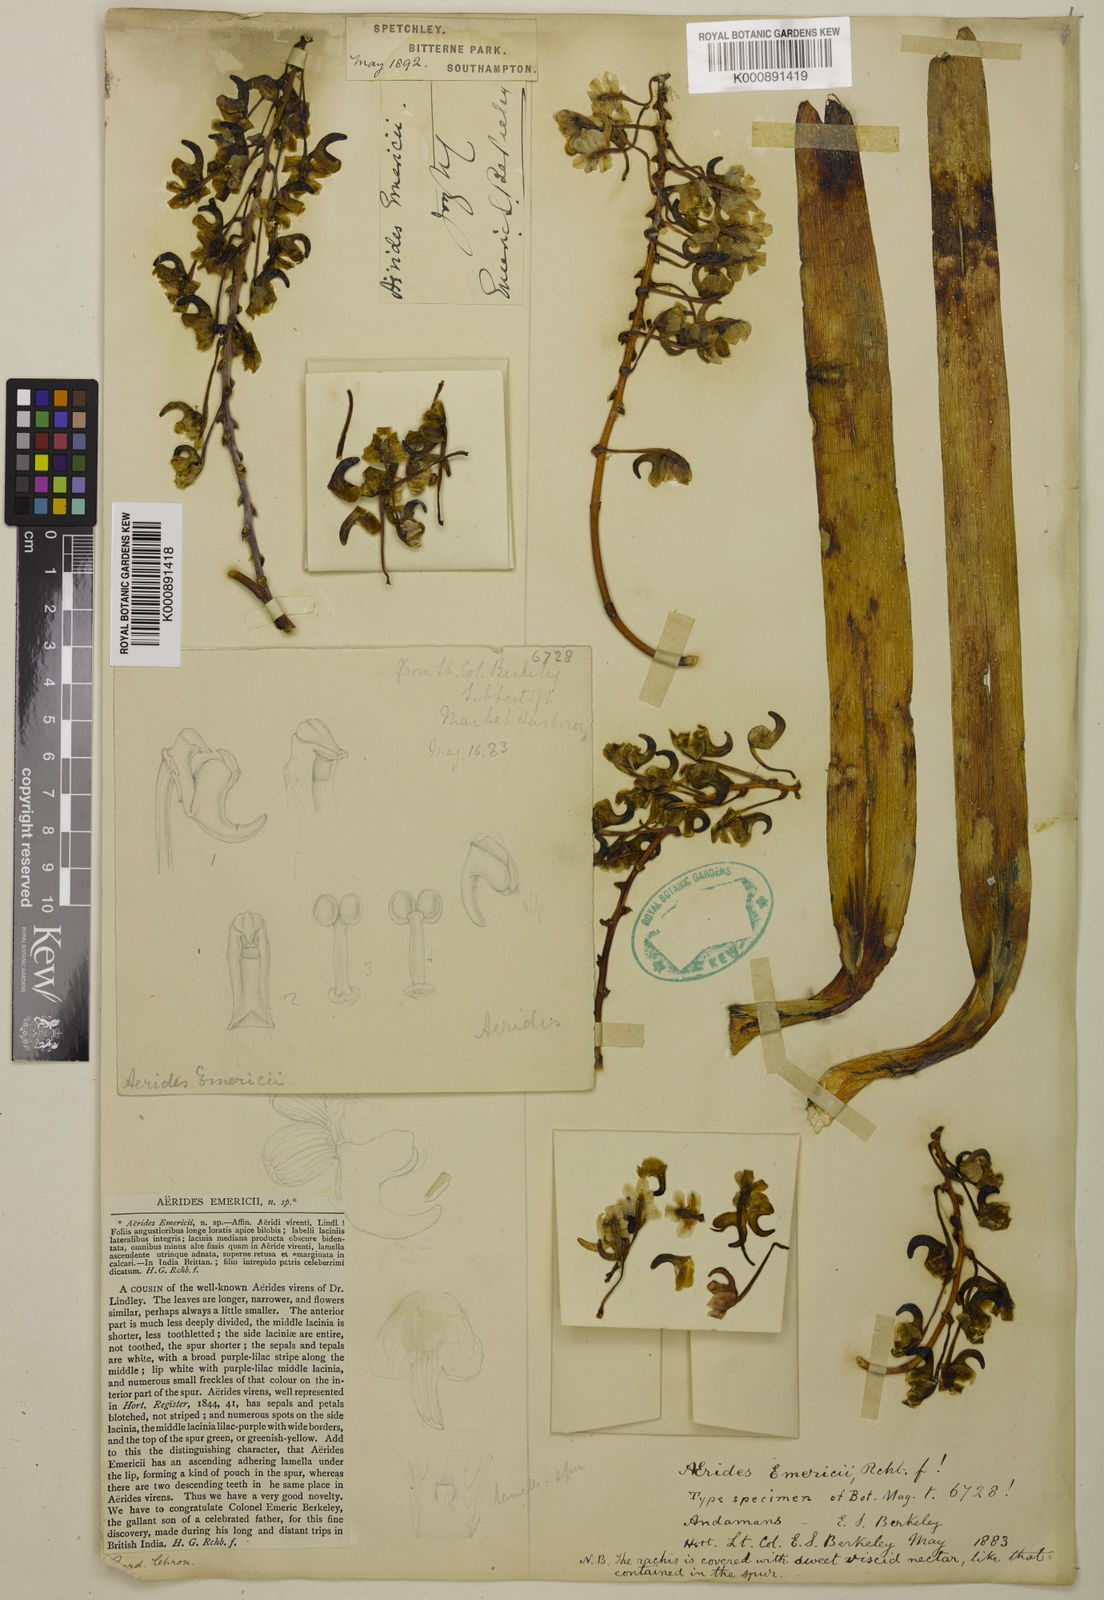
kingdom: Plantae
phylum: Tracheophyta
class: Liliopsida
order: Asparagales
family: Orchidaceae
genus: Aerides
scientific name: Aerides emericii
